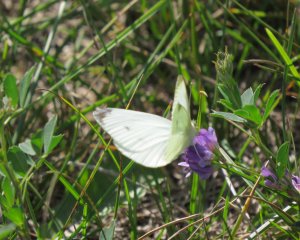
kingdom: Animalia
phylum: Arthropoda
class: Insecta
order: Lepidoptera
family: Pieridae
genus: Pieris
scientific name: Pieris rapae
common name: Cabbage White
